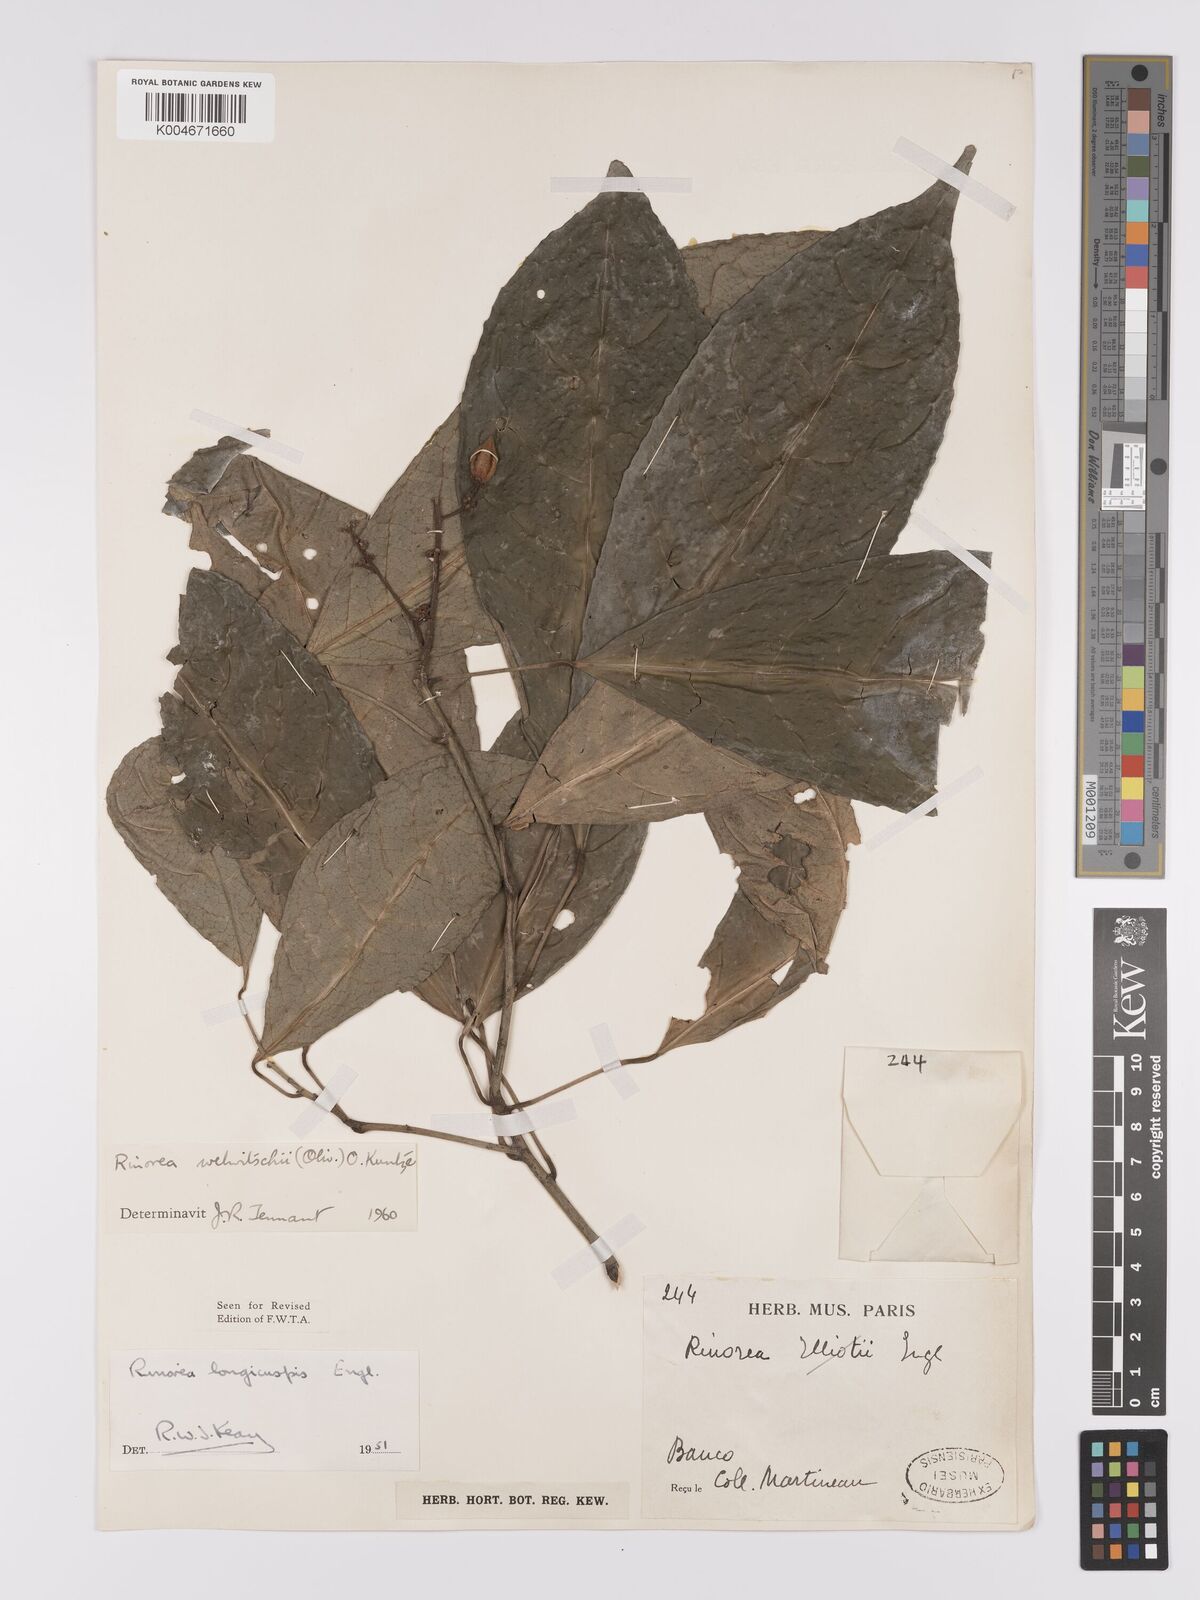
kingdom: Plantae
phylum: Tracheophyta
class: Magnoliopsida
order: Malpighiales
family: Violaceae
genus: Rinorea
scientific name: Rinorea welwitschii
